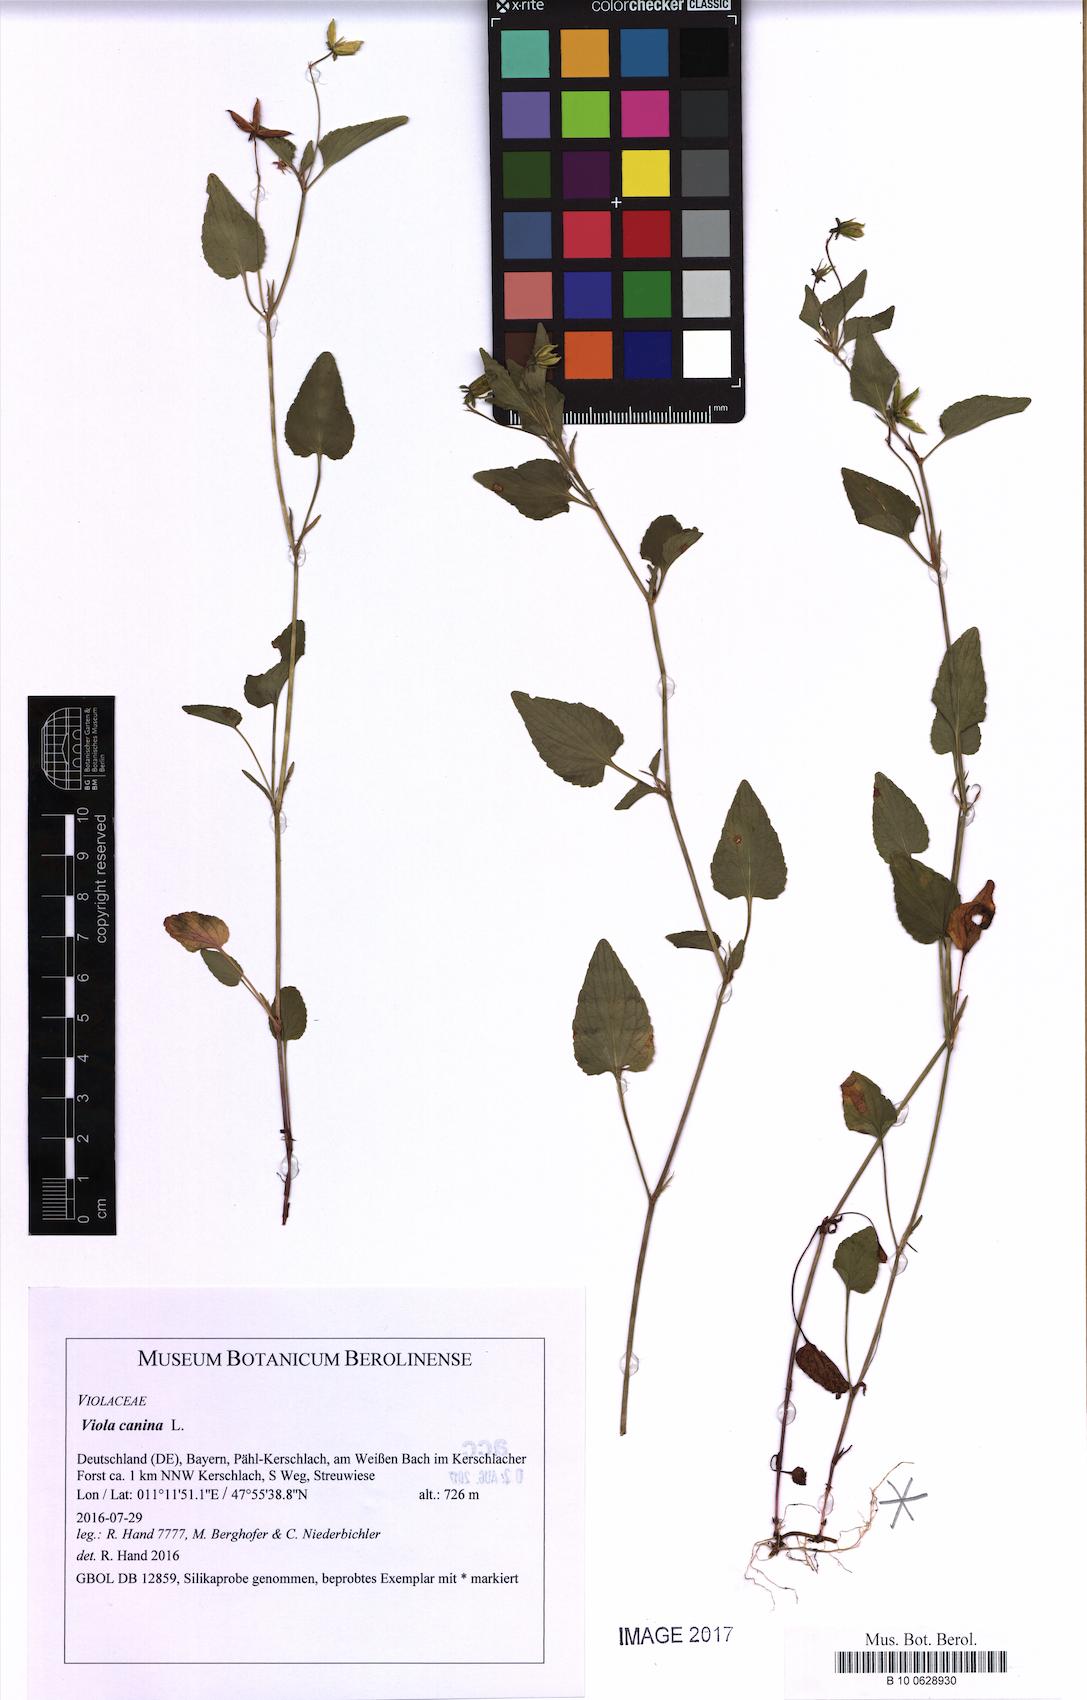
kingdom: Plantae
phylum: Tracheophyta
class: Magnoliopsida
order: Malpighiales
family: Violaceae
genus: Viola
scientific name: Viola canina
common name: Heath dog-violet
